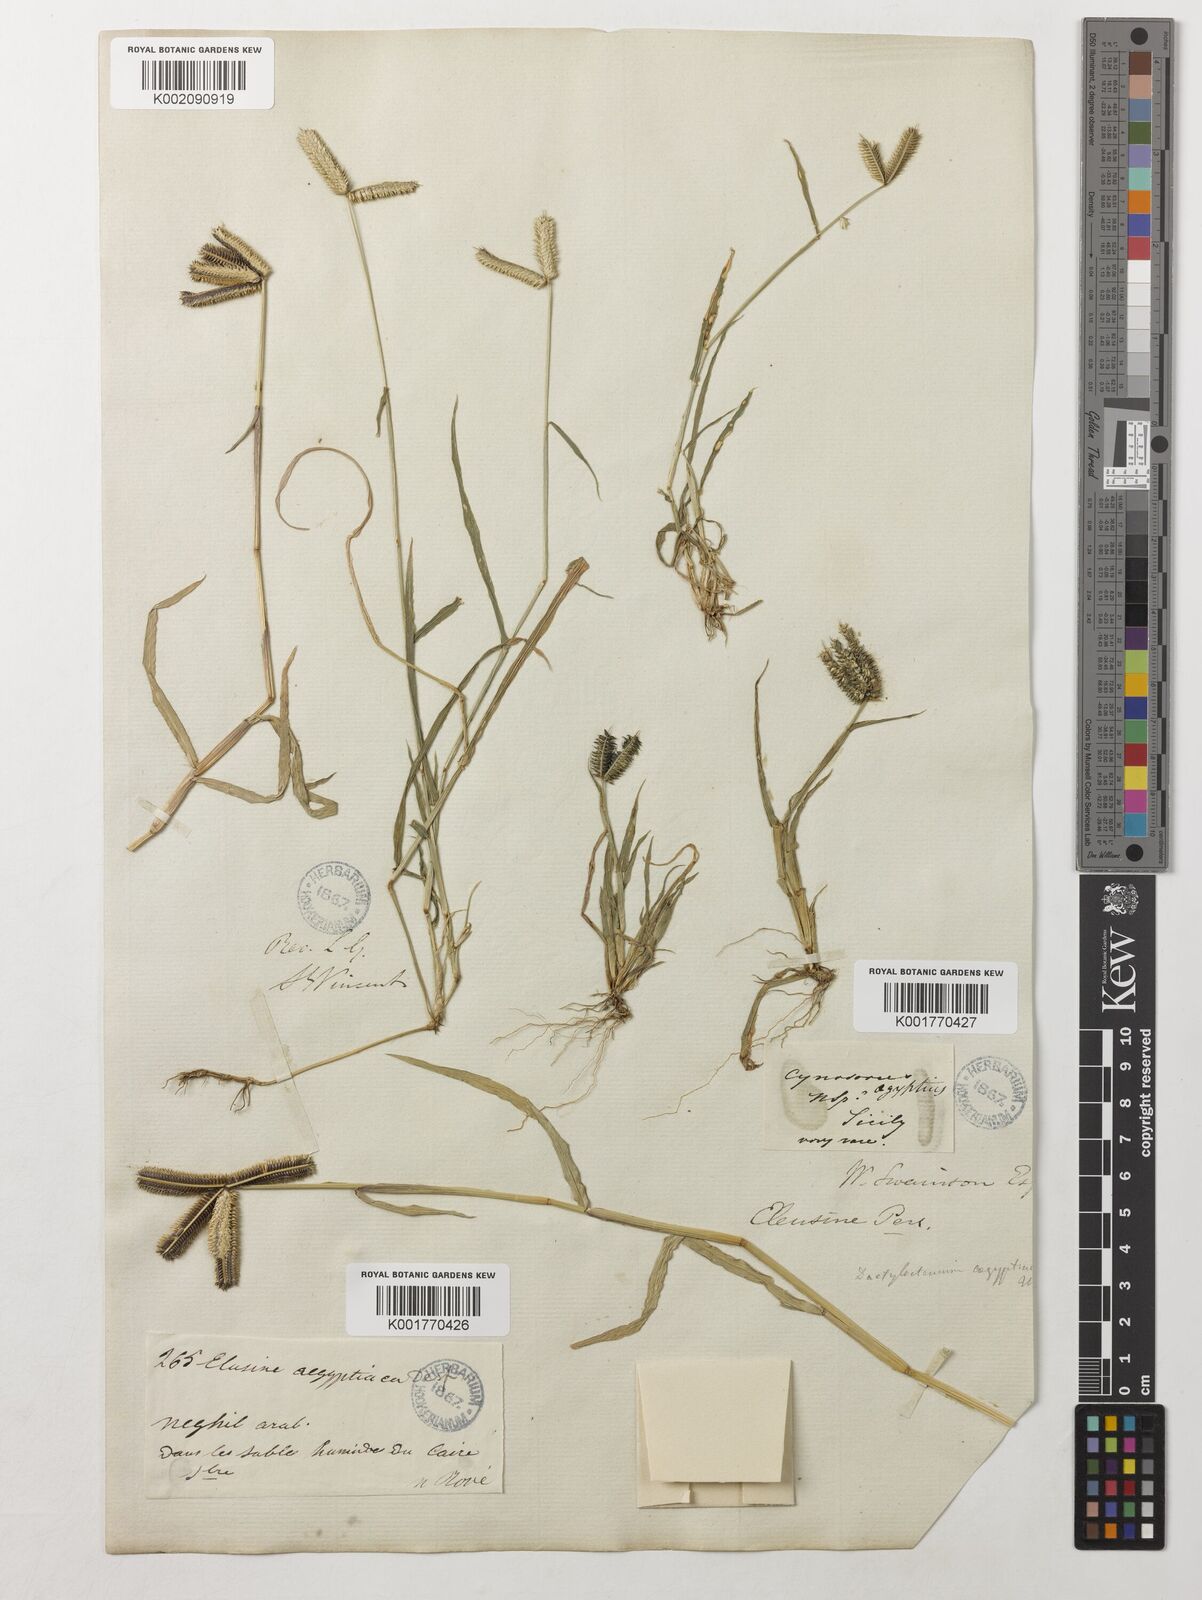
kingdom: Plantae
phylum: Tracheophyta
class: Liliopsida
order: Poales
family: Poaceae
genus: Dactyloctenium
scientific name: Dactyloctenium aegyptium
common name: Egyptian grass
